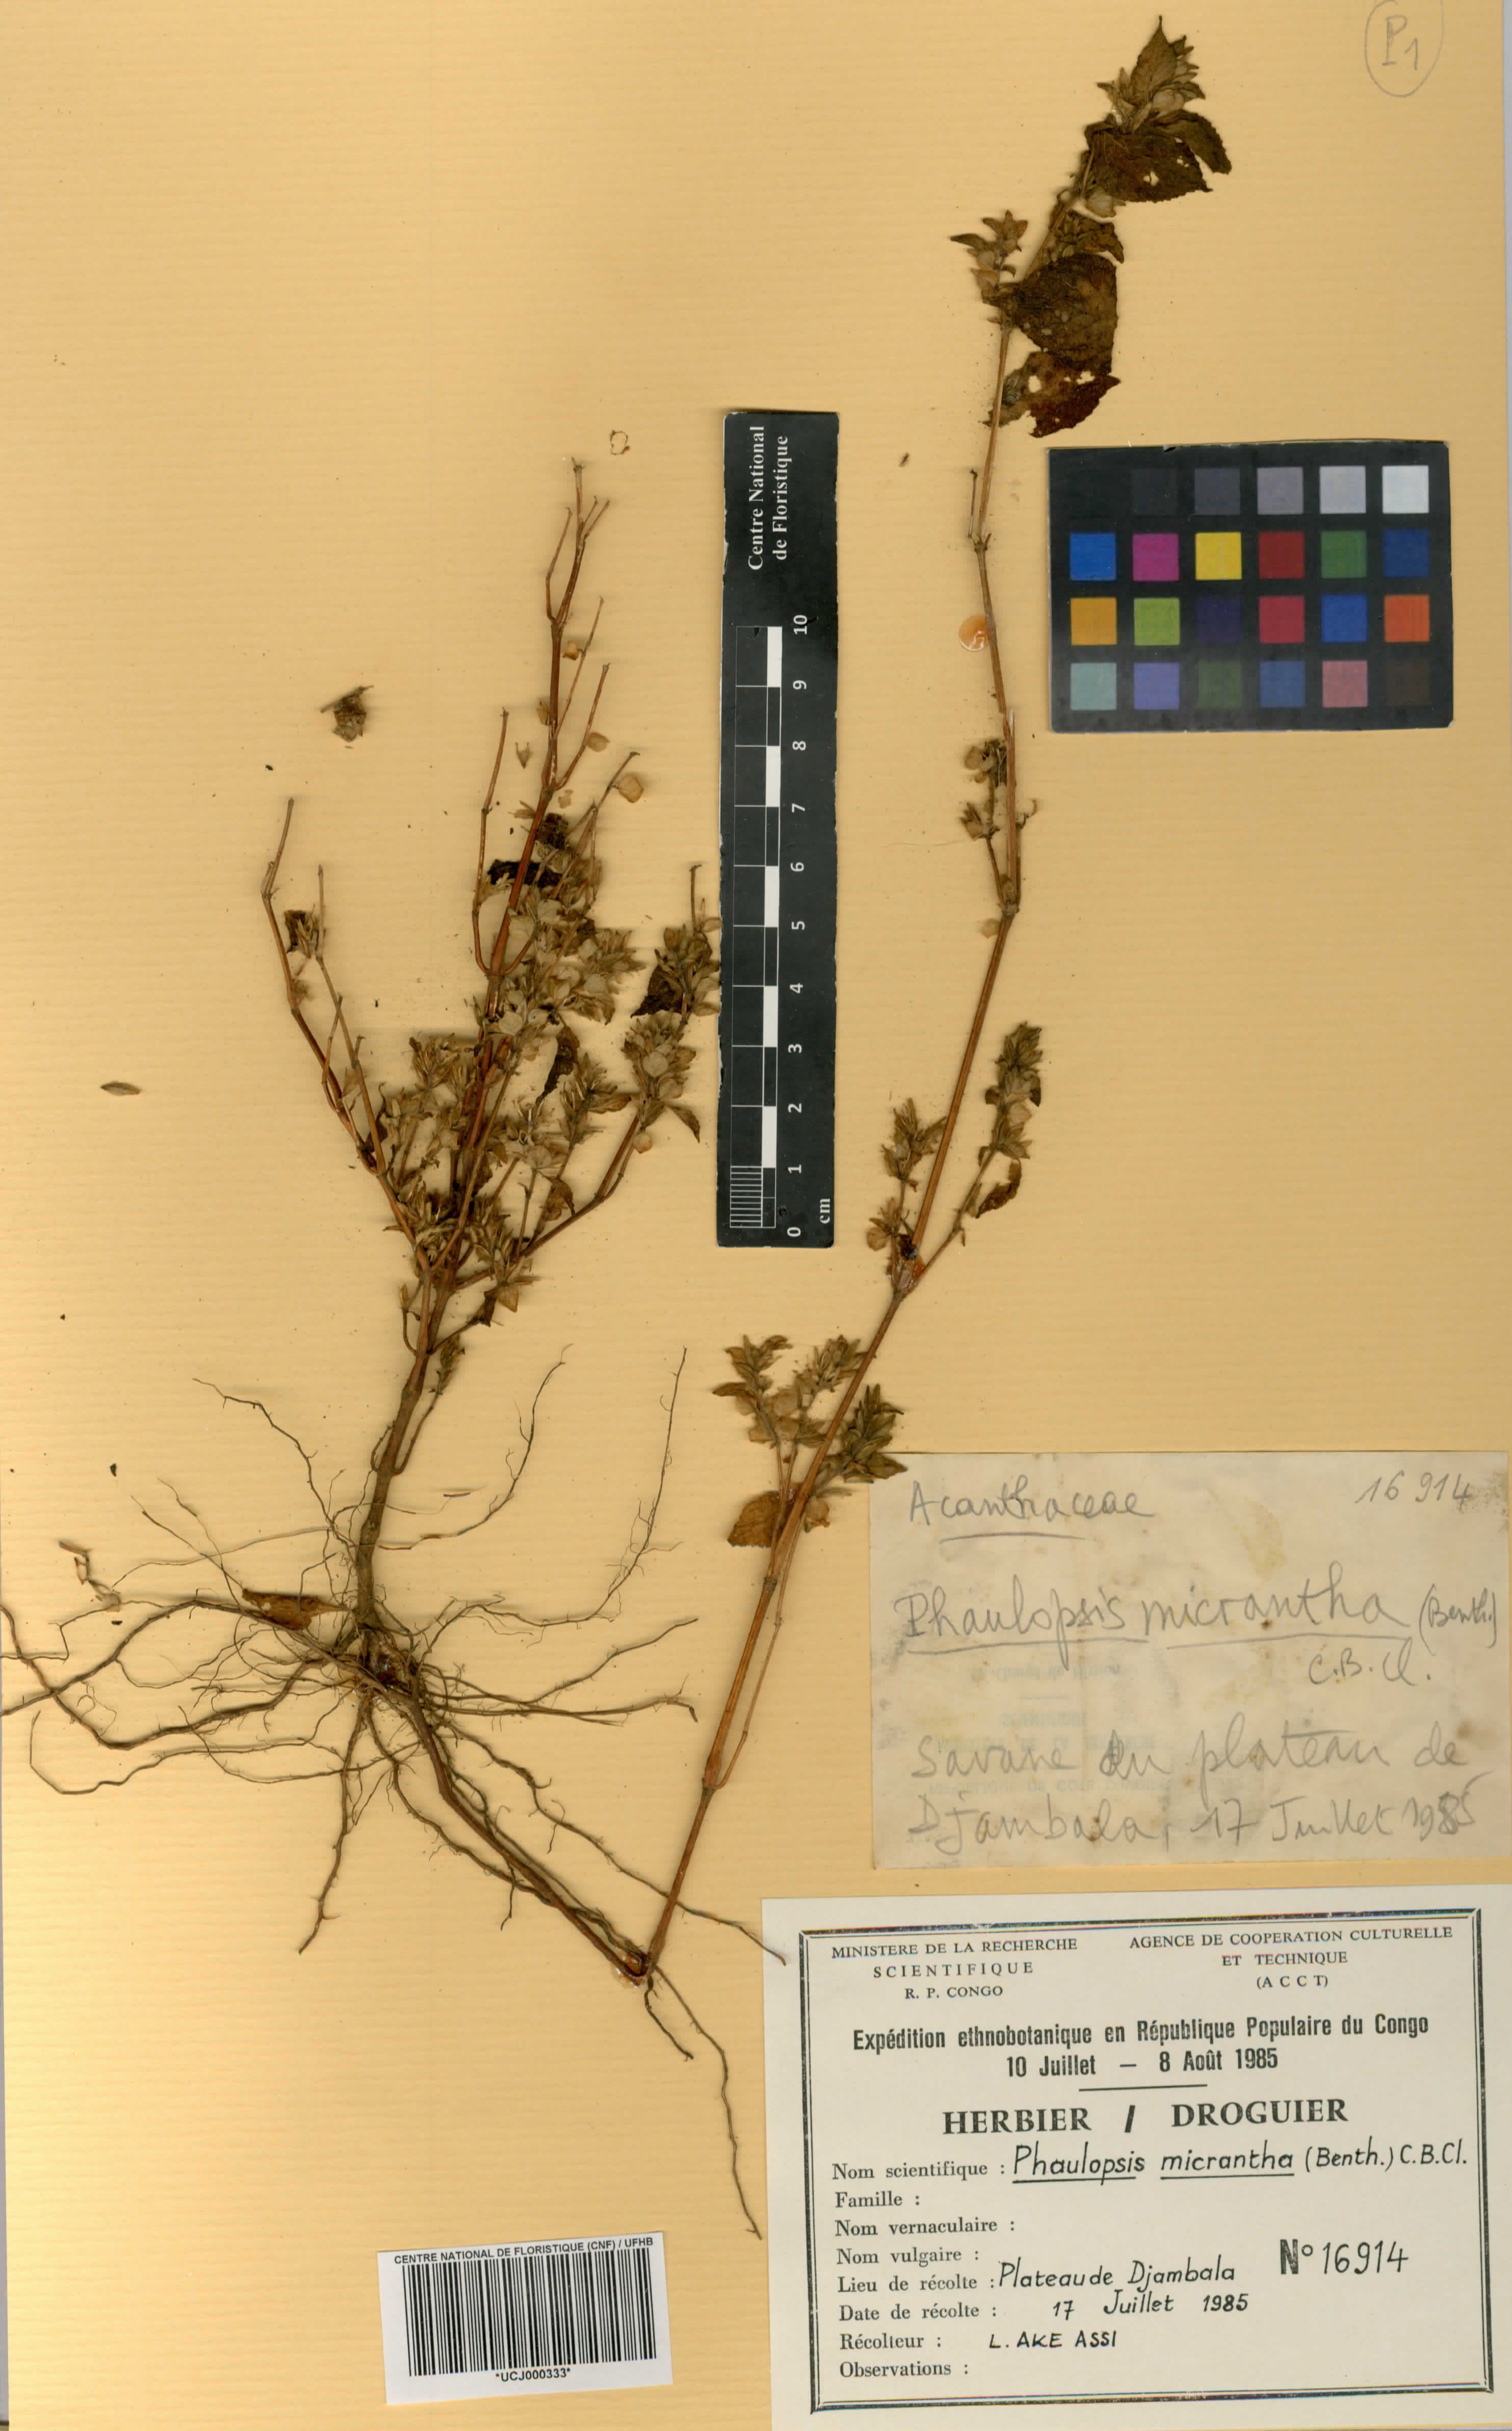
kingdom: Plantae
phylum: Tracheophyta
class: Magnoliopsida
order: Lamiales
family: Acanthaceae
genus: Phaulopsis
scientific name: Phaulopsis micrantha
